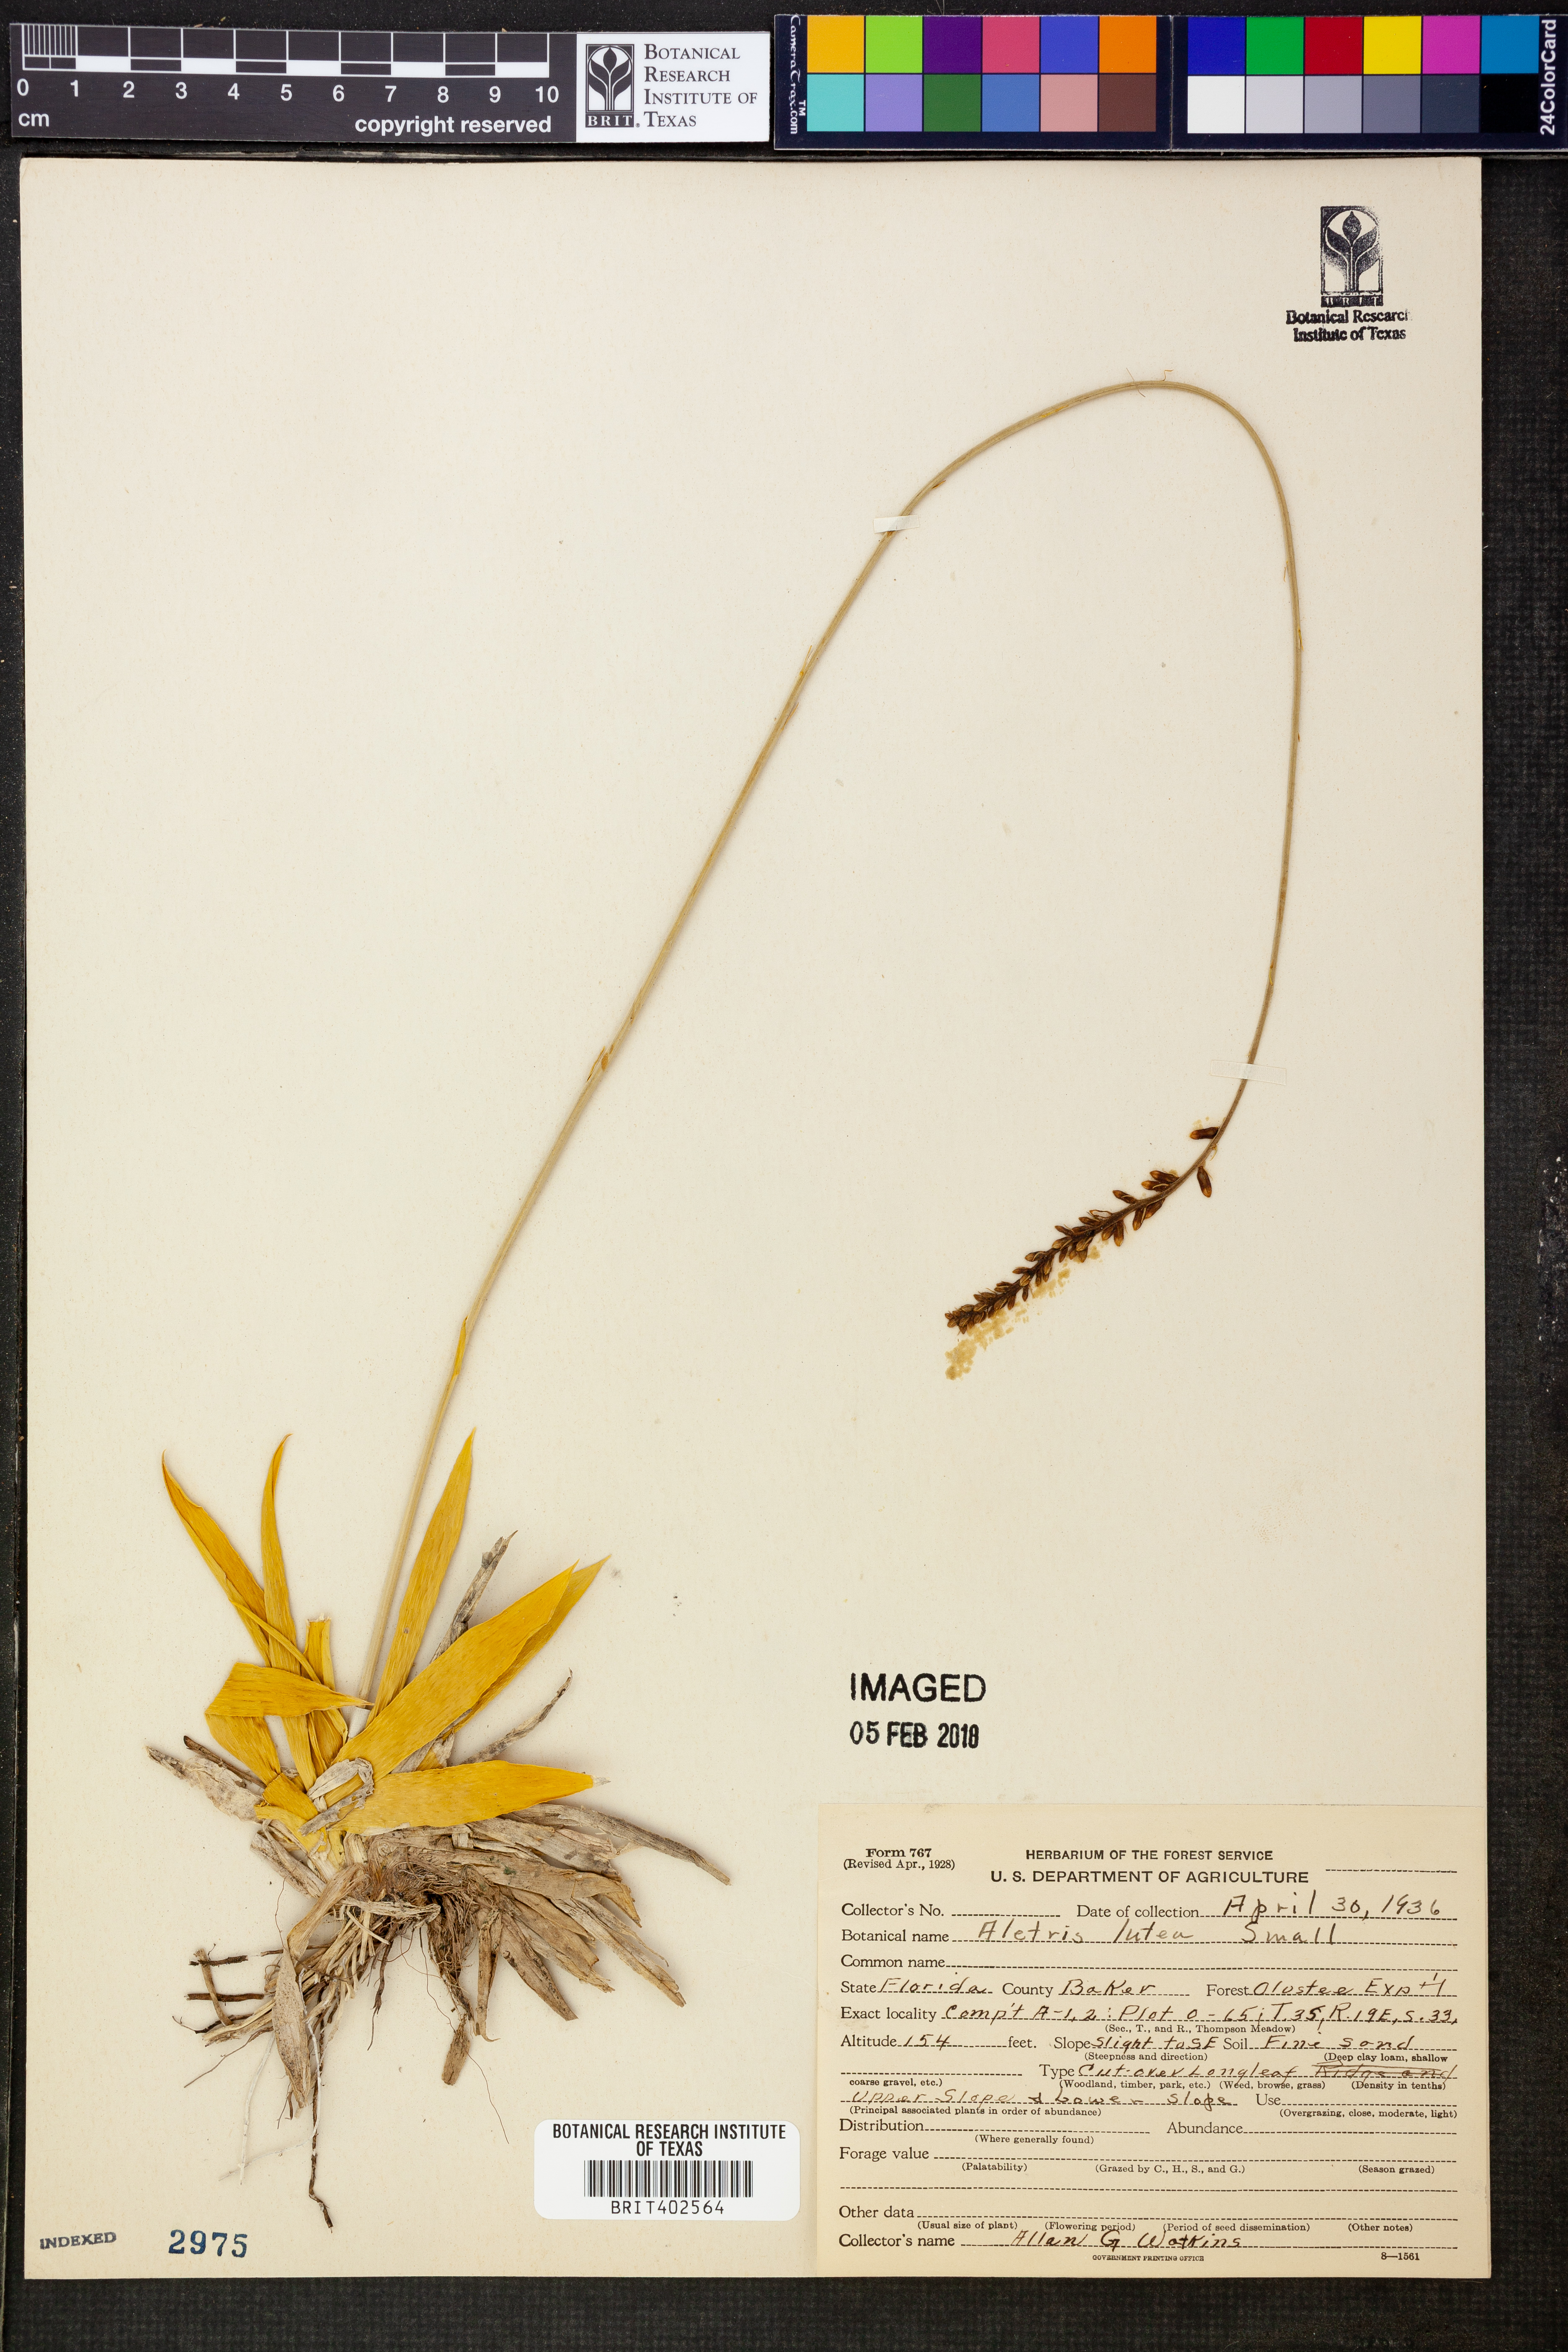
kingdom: Plantae
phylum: Tracheophyta
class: Liliopsida
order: Dioscoreales
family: Nartheciaceae
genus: Aletris
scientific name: Aletris lutea
